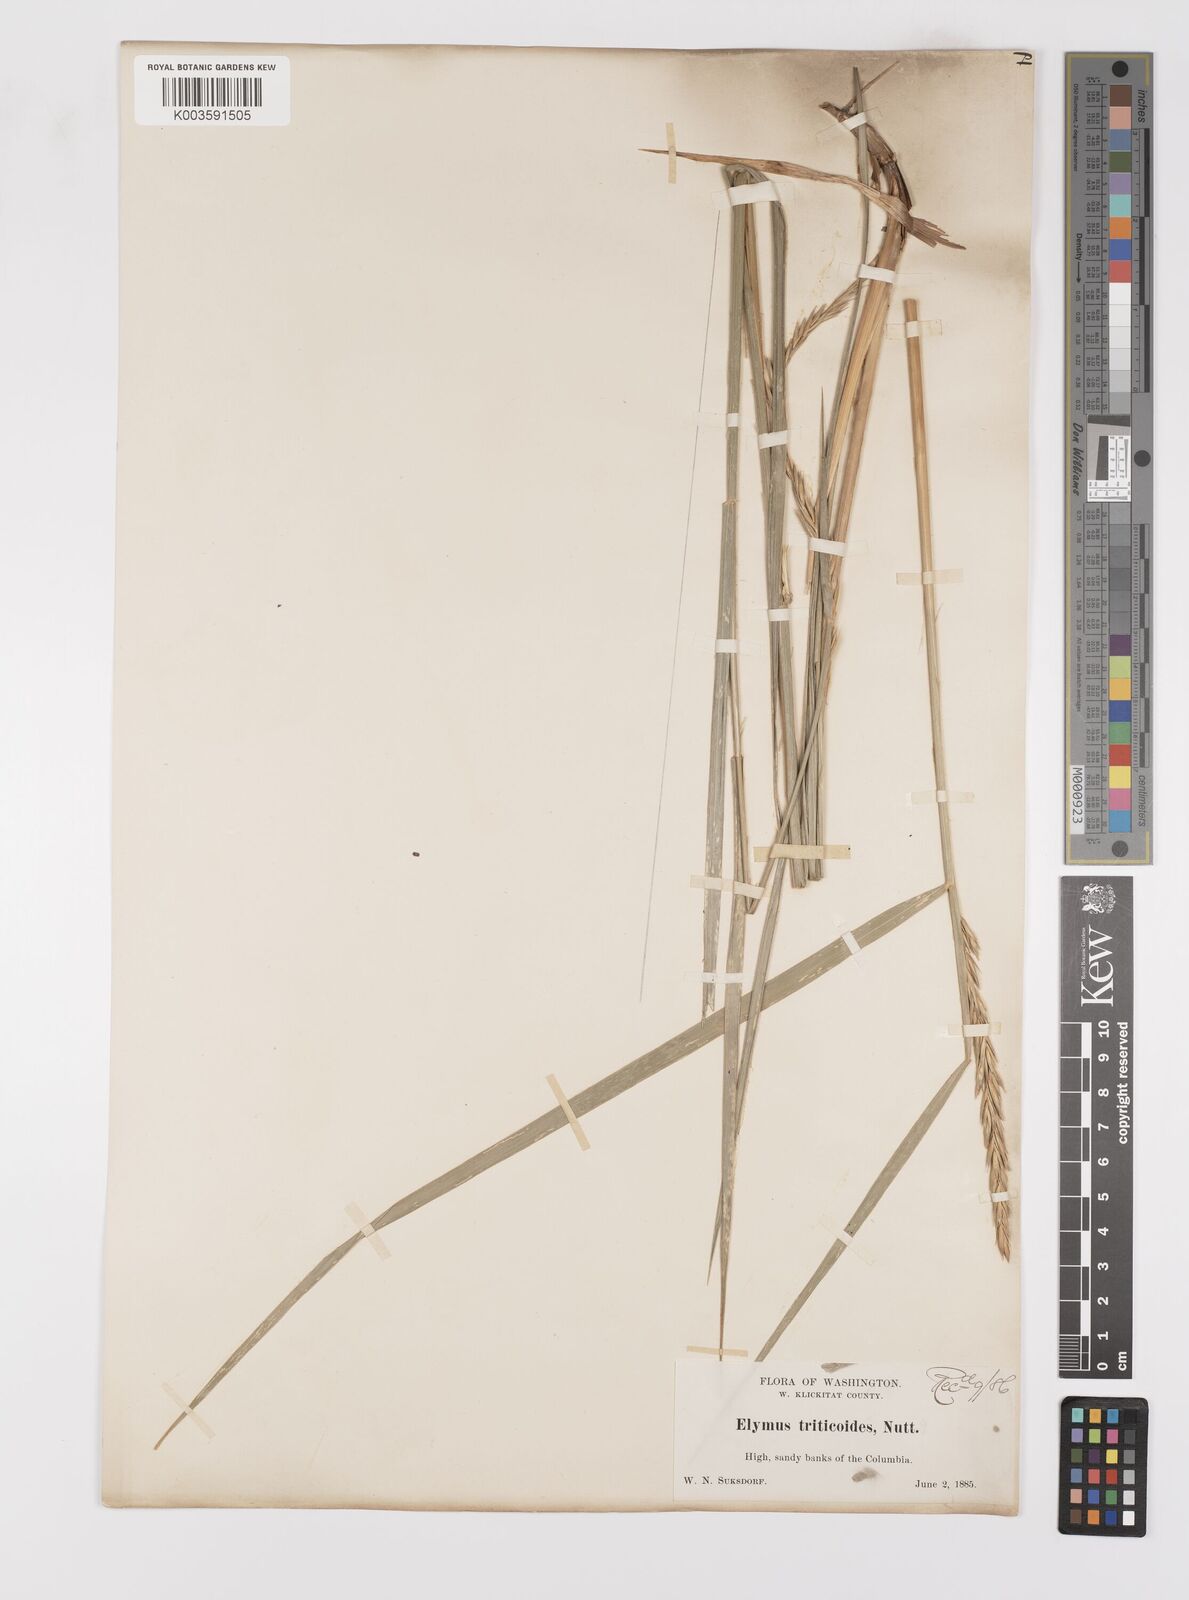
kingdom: Plantae
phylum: Tracheophyta
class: Liliopsida
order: Poales
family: Poaceae
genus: Leymus
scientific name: Leymus triticoides
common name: Beardless wild rye
